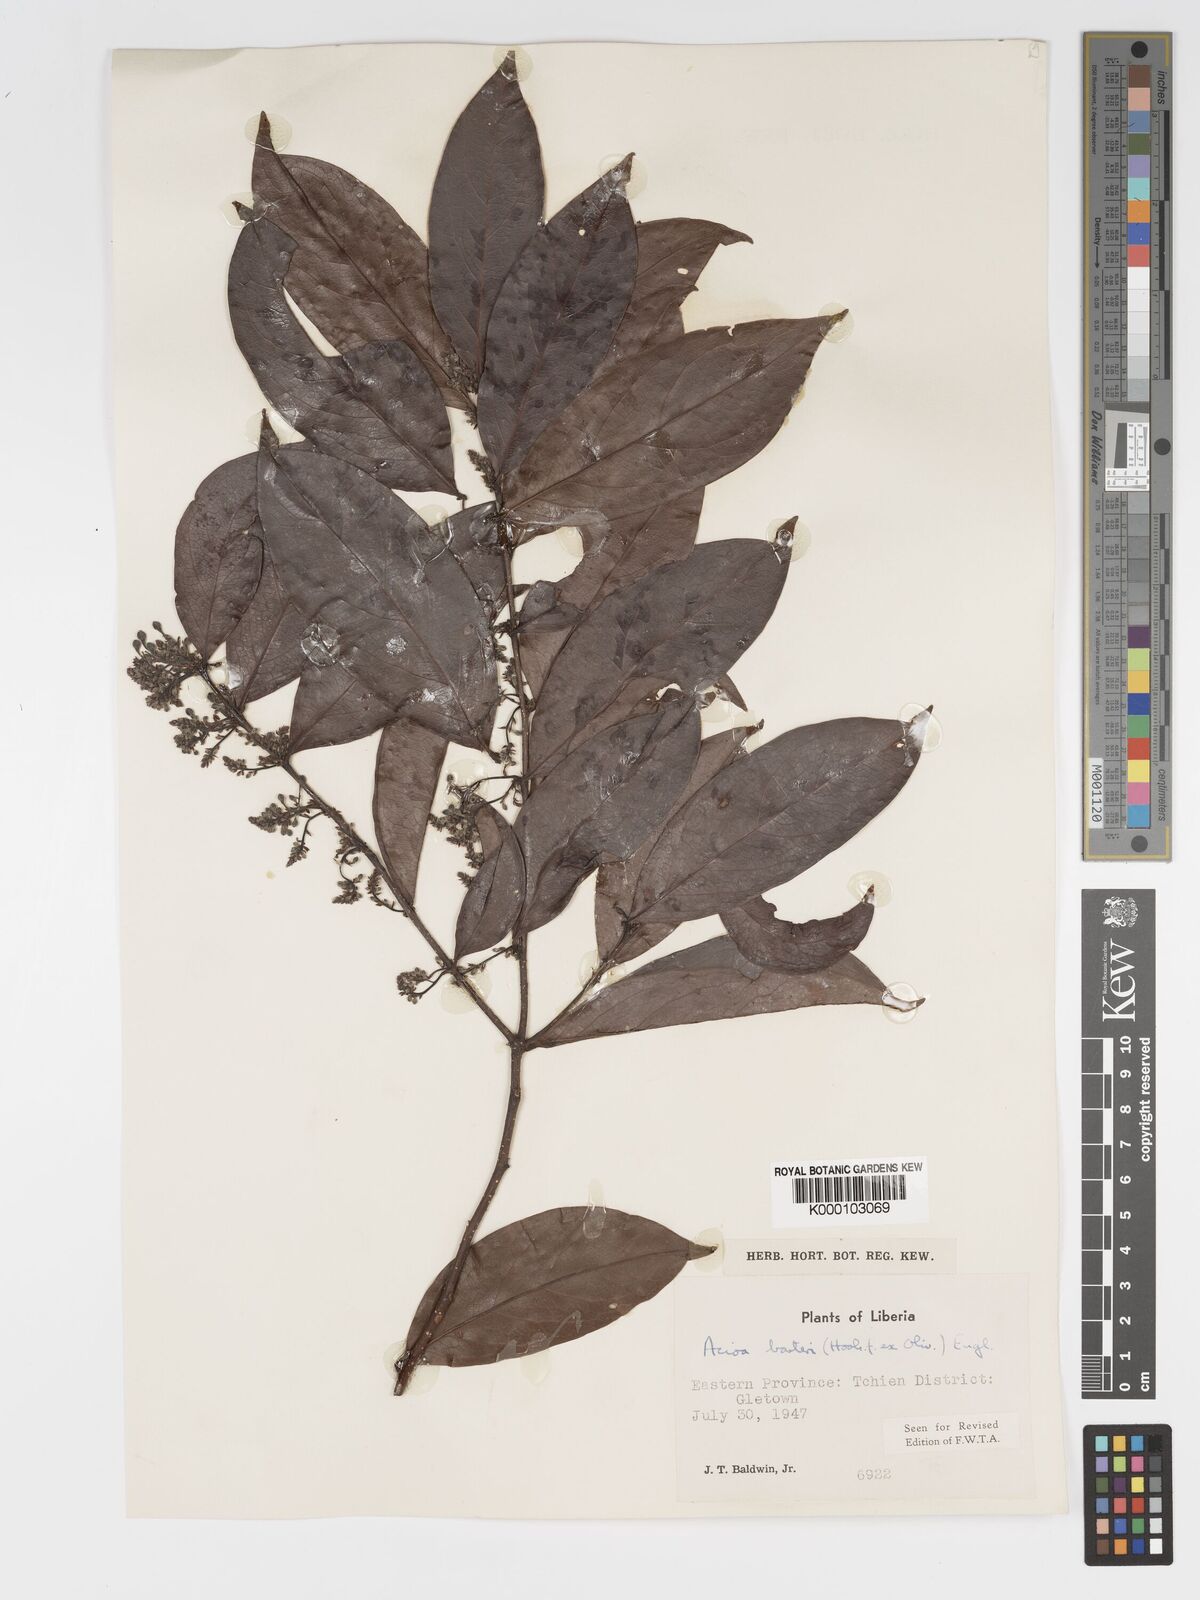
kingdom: Plantae
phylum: Tracheophyta
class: Magnoliopsida
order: Malpighiales
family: Chrysobalanaceae
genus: Dactyladenia
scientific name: Dactyladenia barteri
